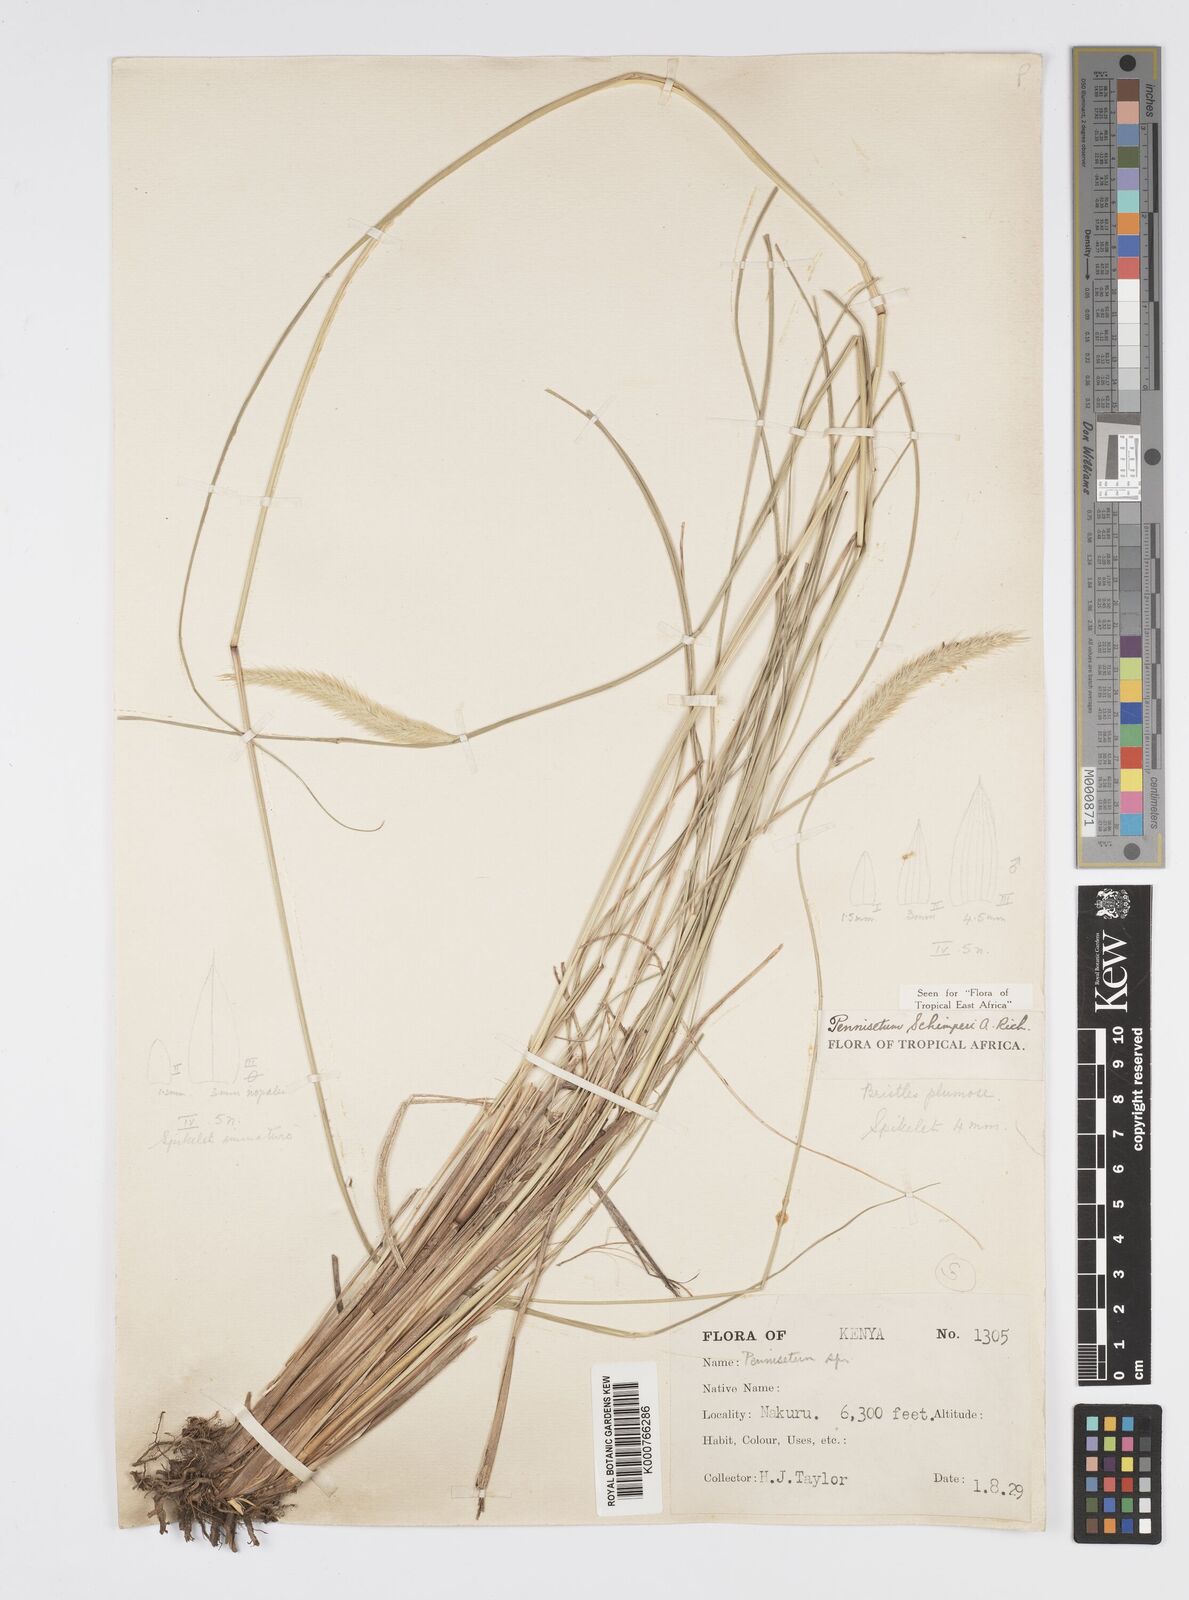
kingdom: Plantae
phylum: Tracheophyta
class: Liliopsida
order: Poales
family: Poaceae
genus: Cenchrus
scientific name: Cenchrus sphacelatus
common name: Bulgras
